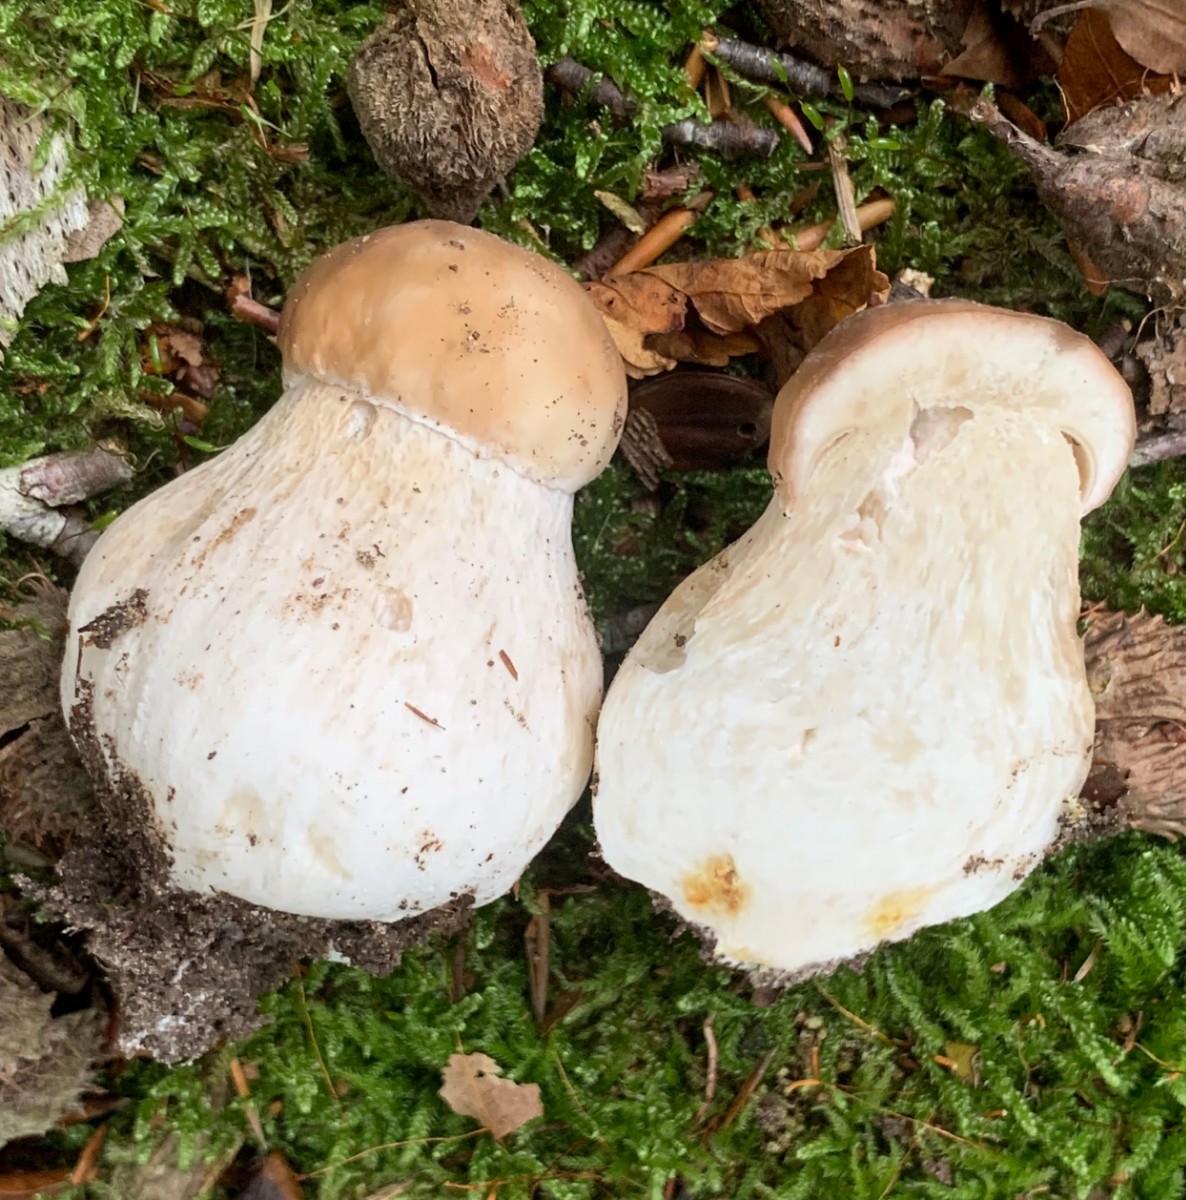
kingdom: Fungi
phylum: Basidiomycota
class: Agaricomycetes
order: Boletales
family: Boletaceae
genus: Boletus
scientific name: Boletus edulis
